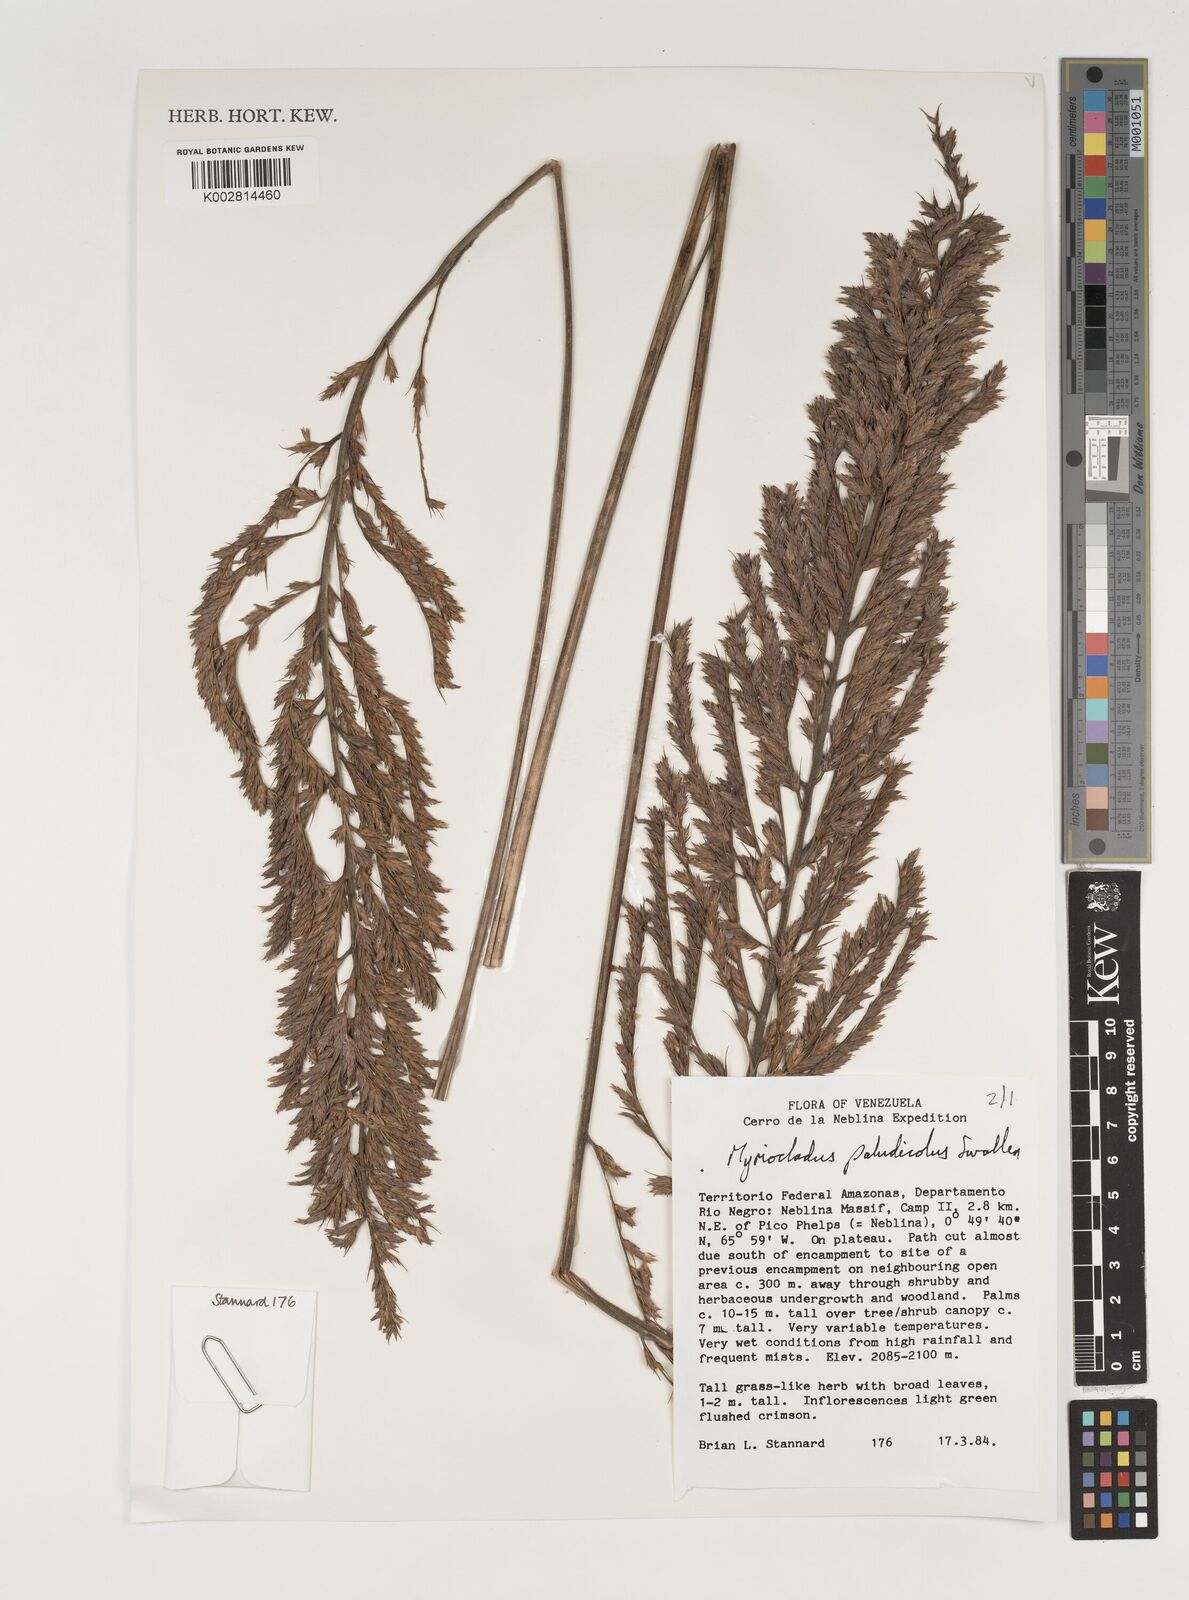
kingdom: Plantae
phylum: Tracheophyta
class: Liliopsida
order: Poales
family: Poaceae
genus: Myriocladus
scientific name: Myriocladus paludicola
